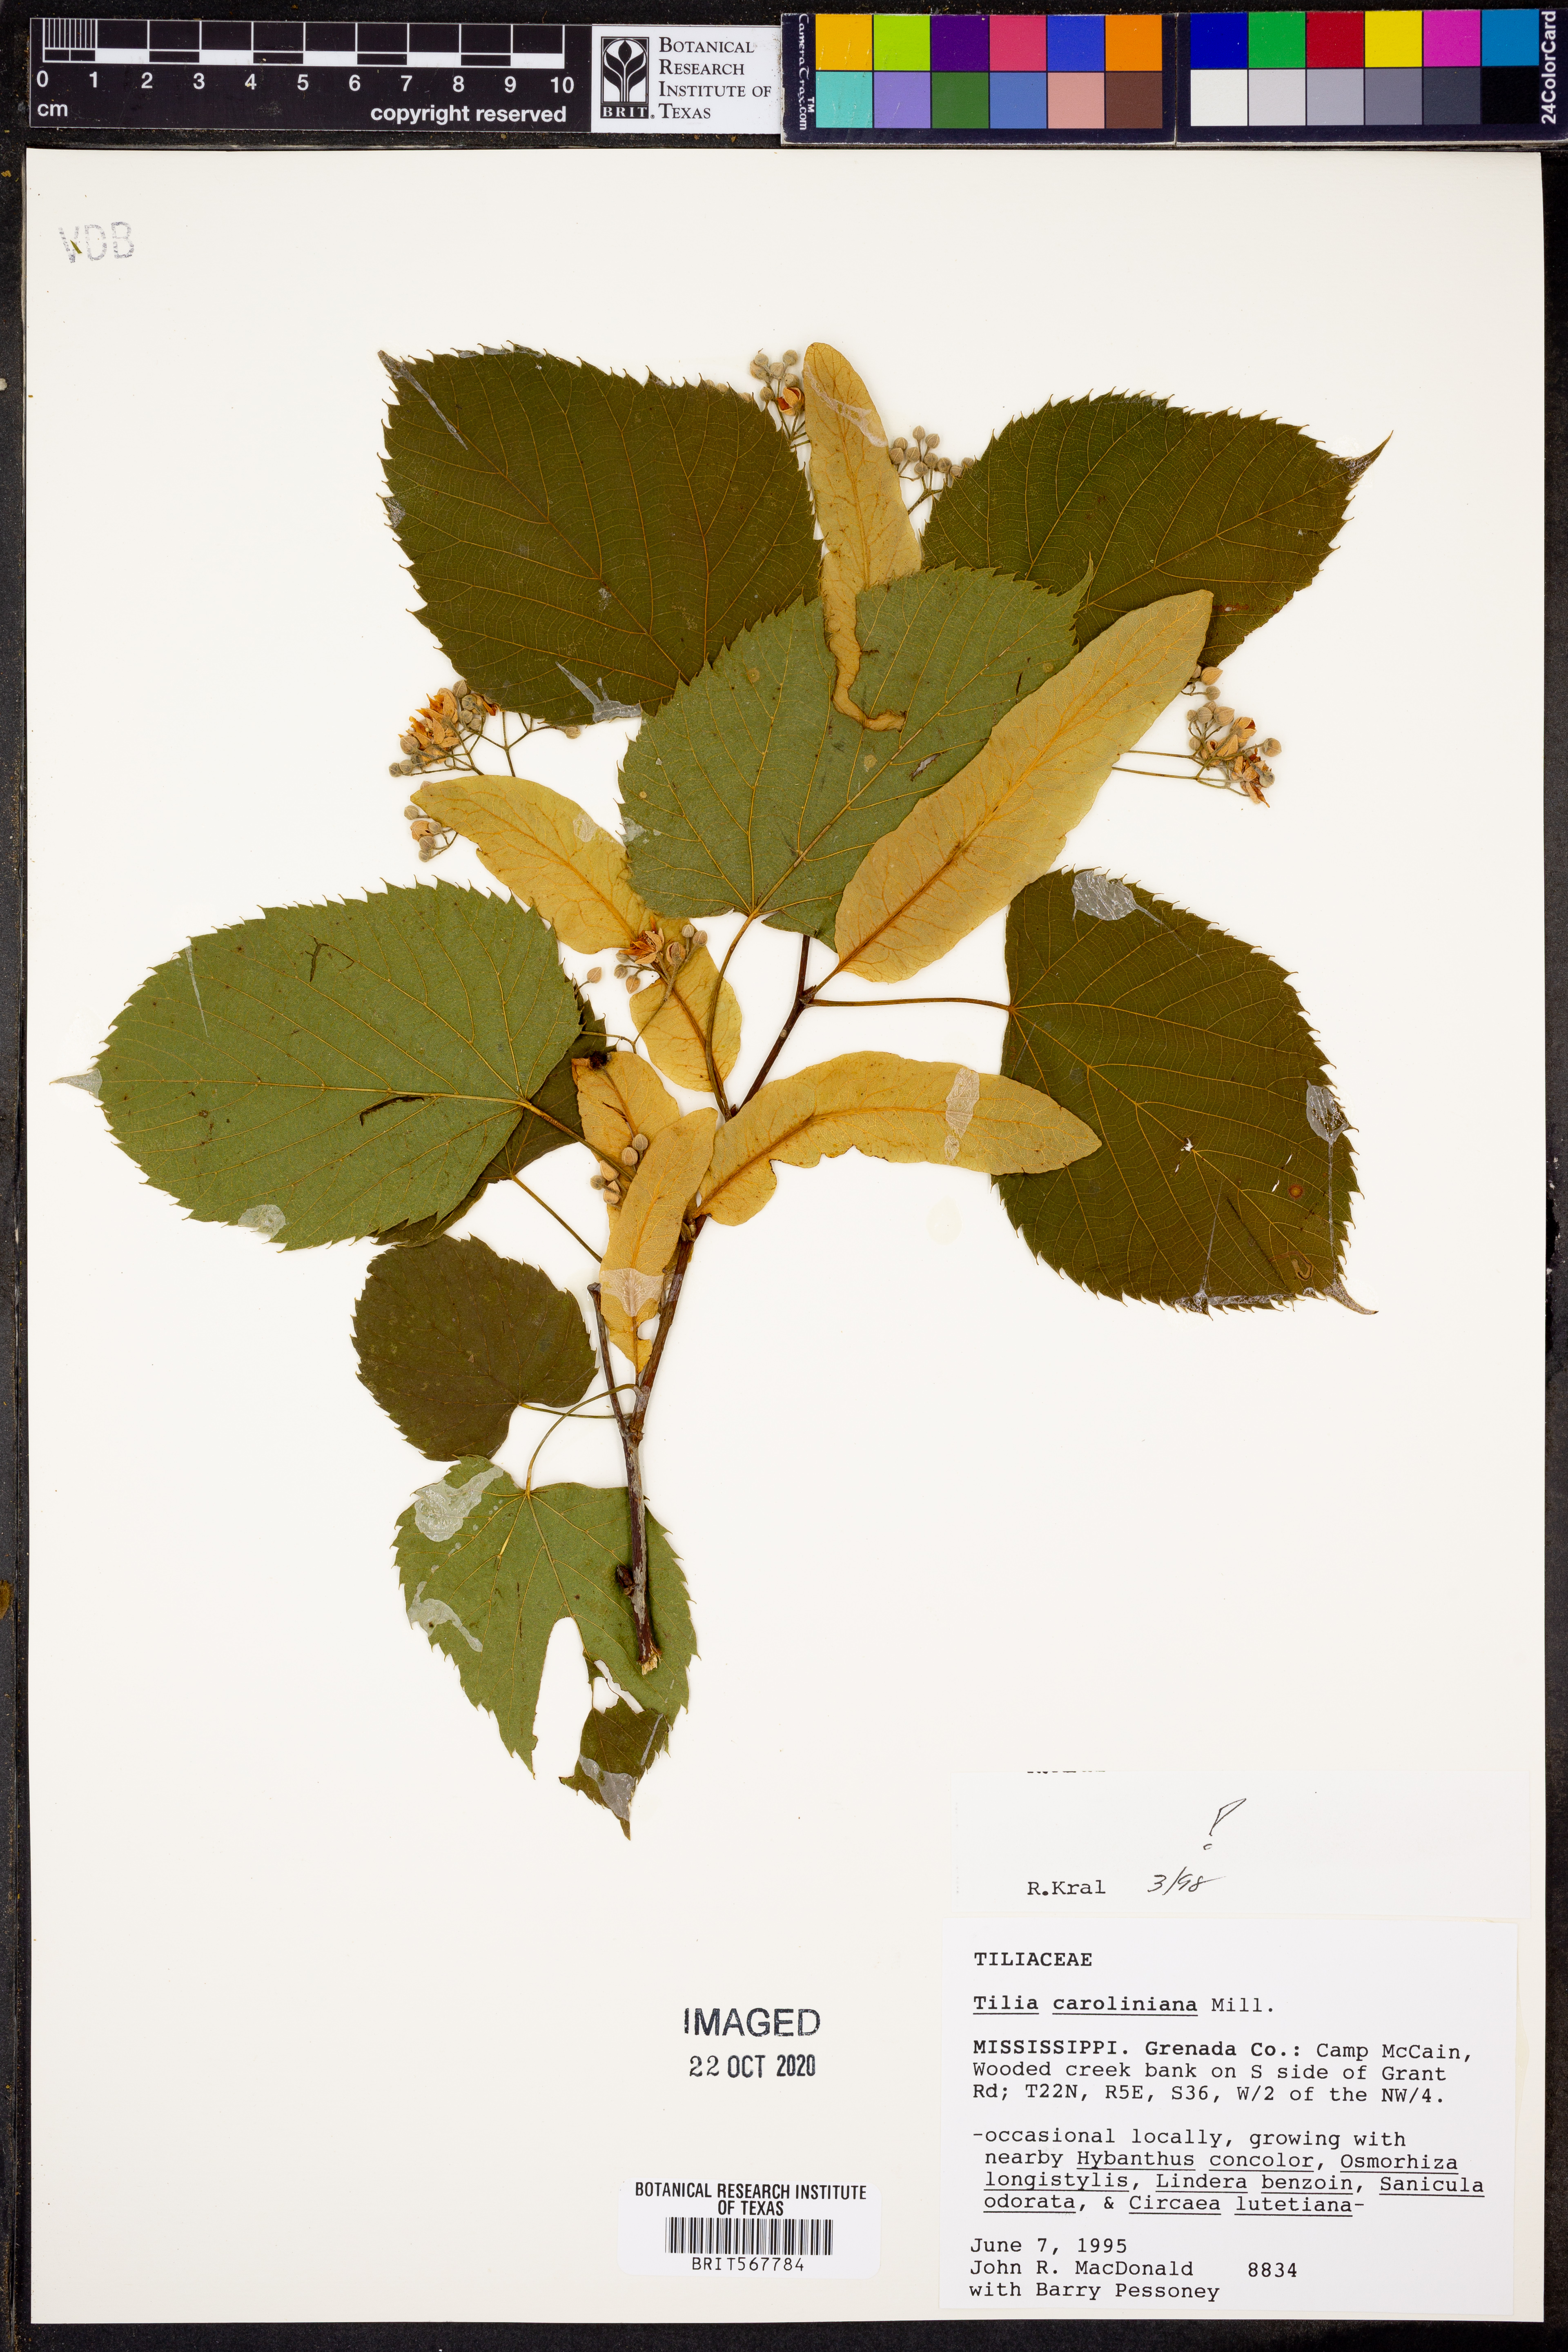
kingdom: Plantae
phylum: Tracheophyta
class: Magnoliopsida
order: Malvales
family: Malvaceae
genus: Tilia
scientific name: Tilia americana
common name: Basswood
